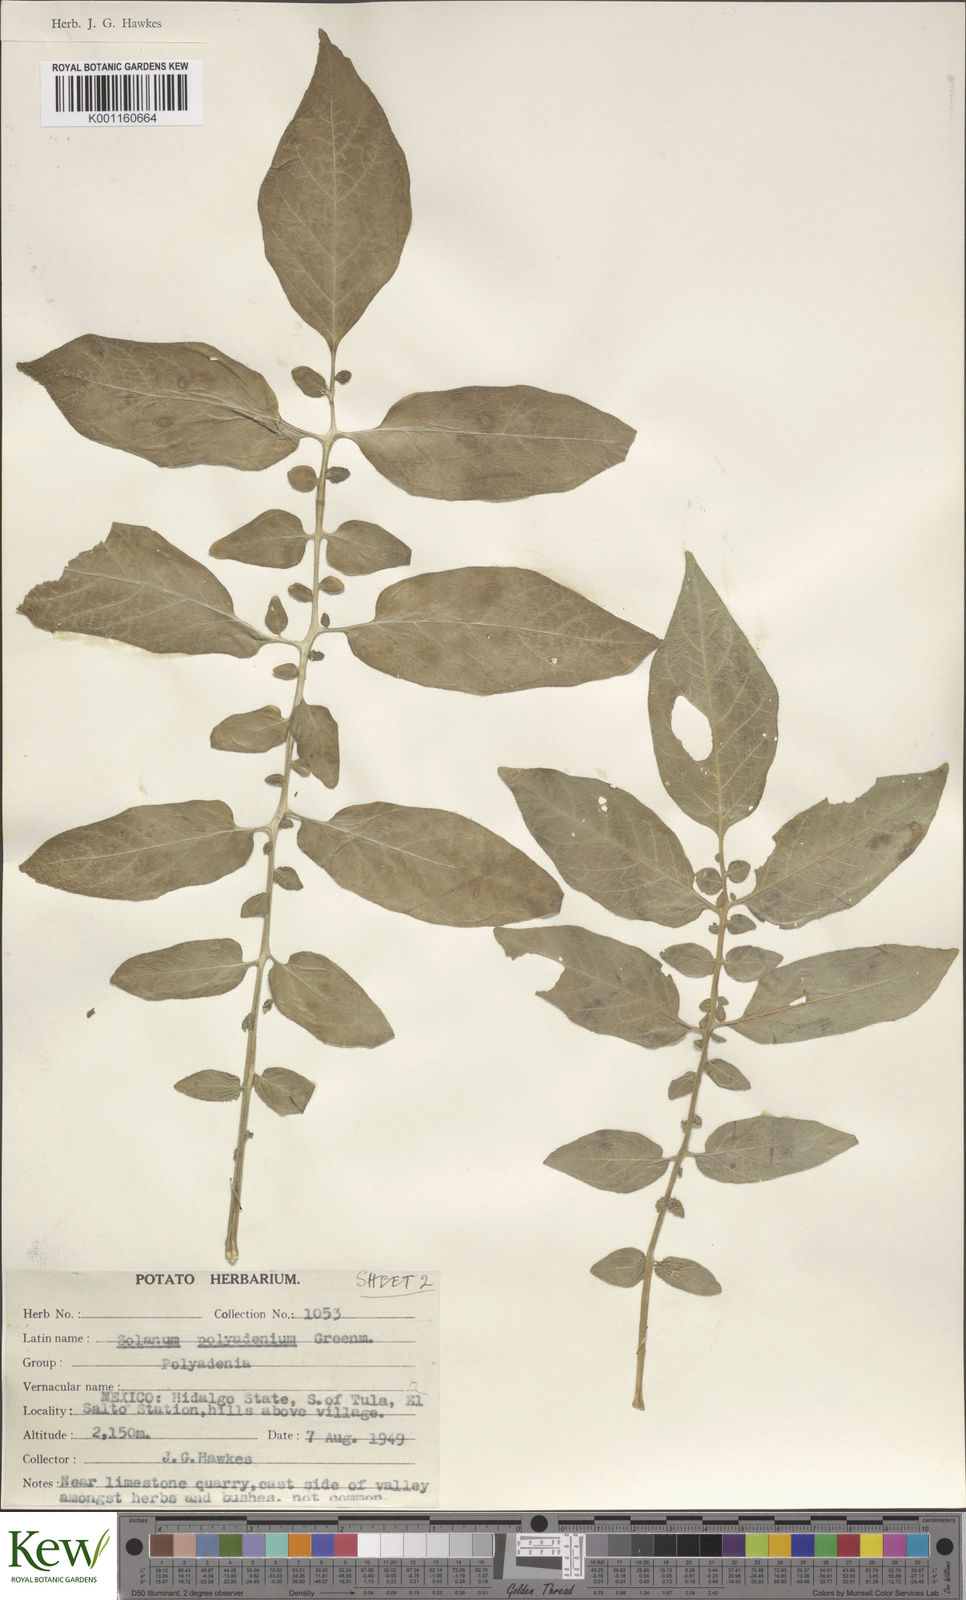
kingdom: Plantae
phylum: Tracheophyta
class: Magnoliopsida
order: Solanales
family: Solanaceae
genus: Solanum
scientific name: Solanum polyadenium
